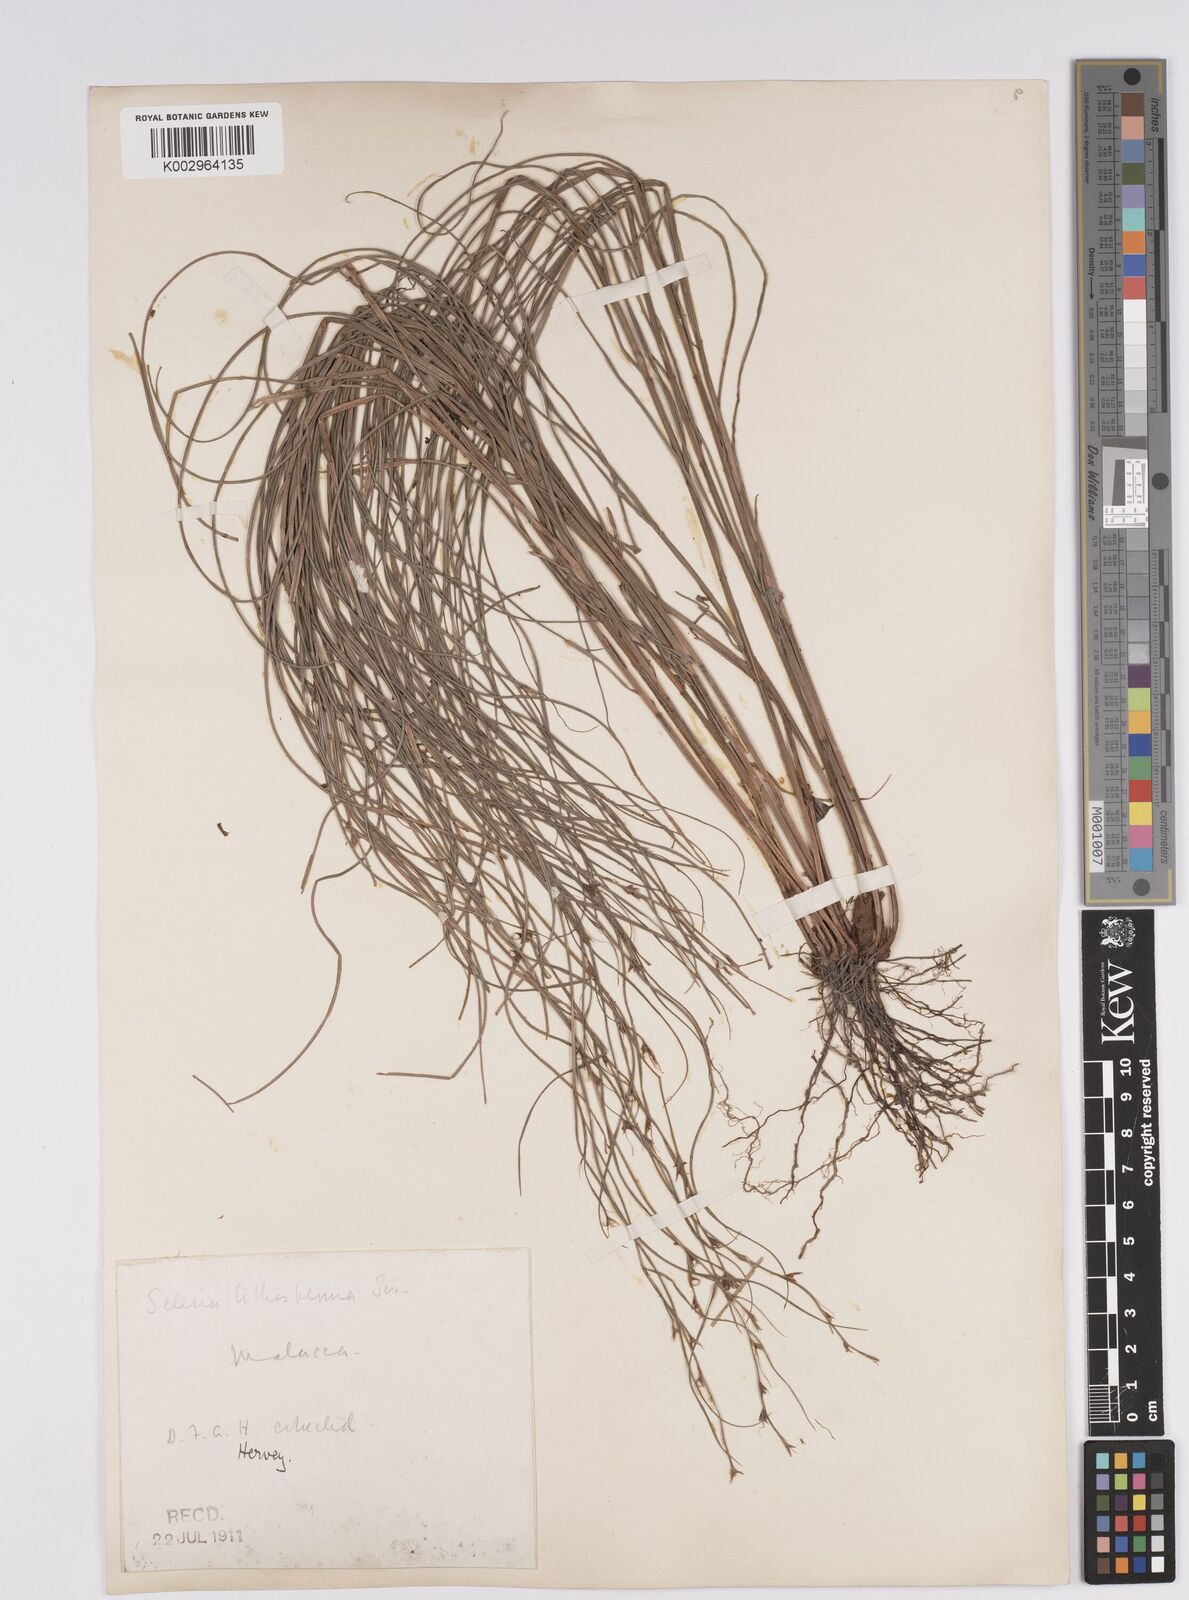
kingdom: Plantae
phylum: Tracheophyta
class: Liliopsida
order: Poales
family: Cyperaceae
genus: Scleria
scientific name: Scleria lithosperma
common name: Florida keys nut-rush
